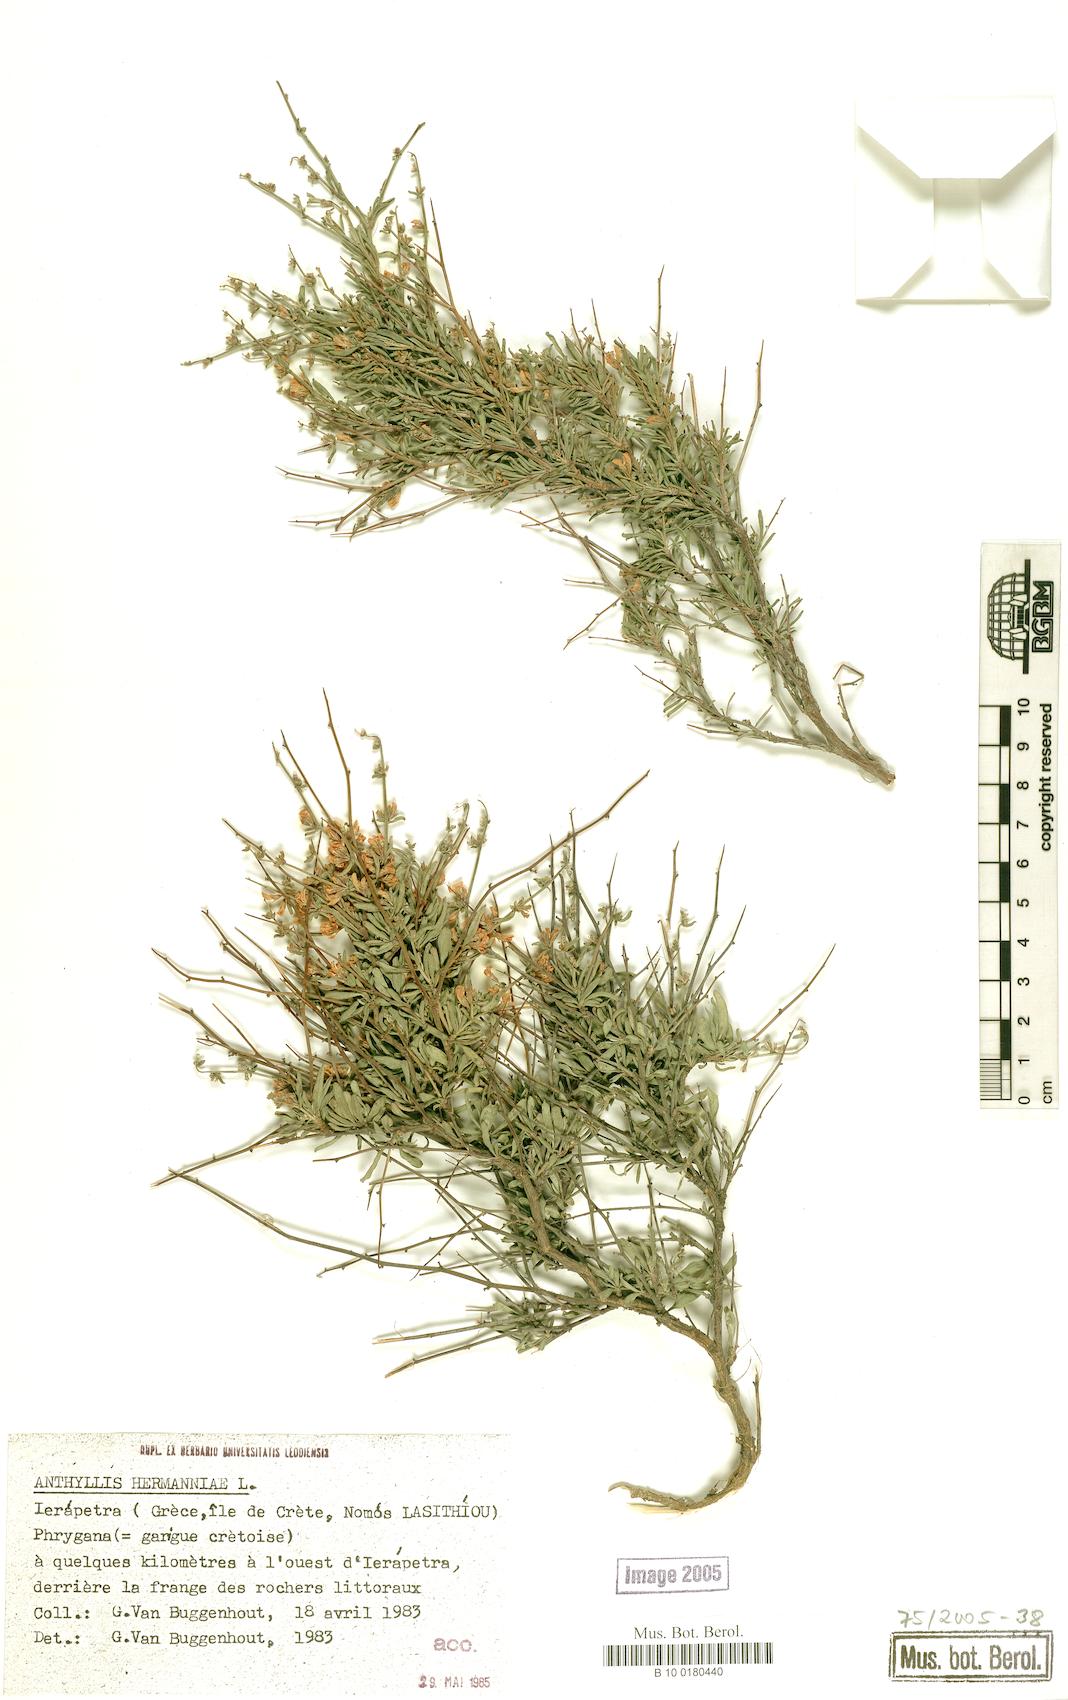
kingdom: Plantae
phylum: Tracheophyta
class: Magnoliopsida
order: Fabales
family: Fabaceae
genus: Anthyllis
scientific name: Anthyllis hermanniae
